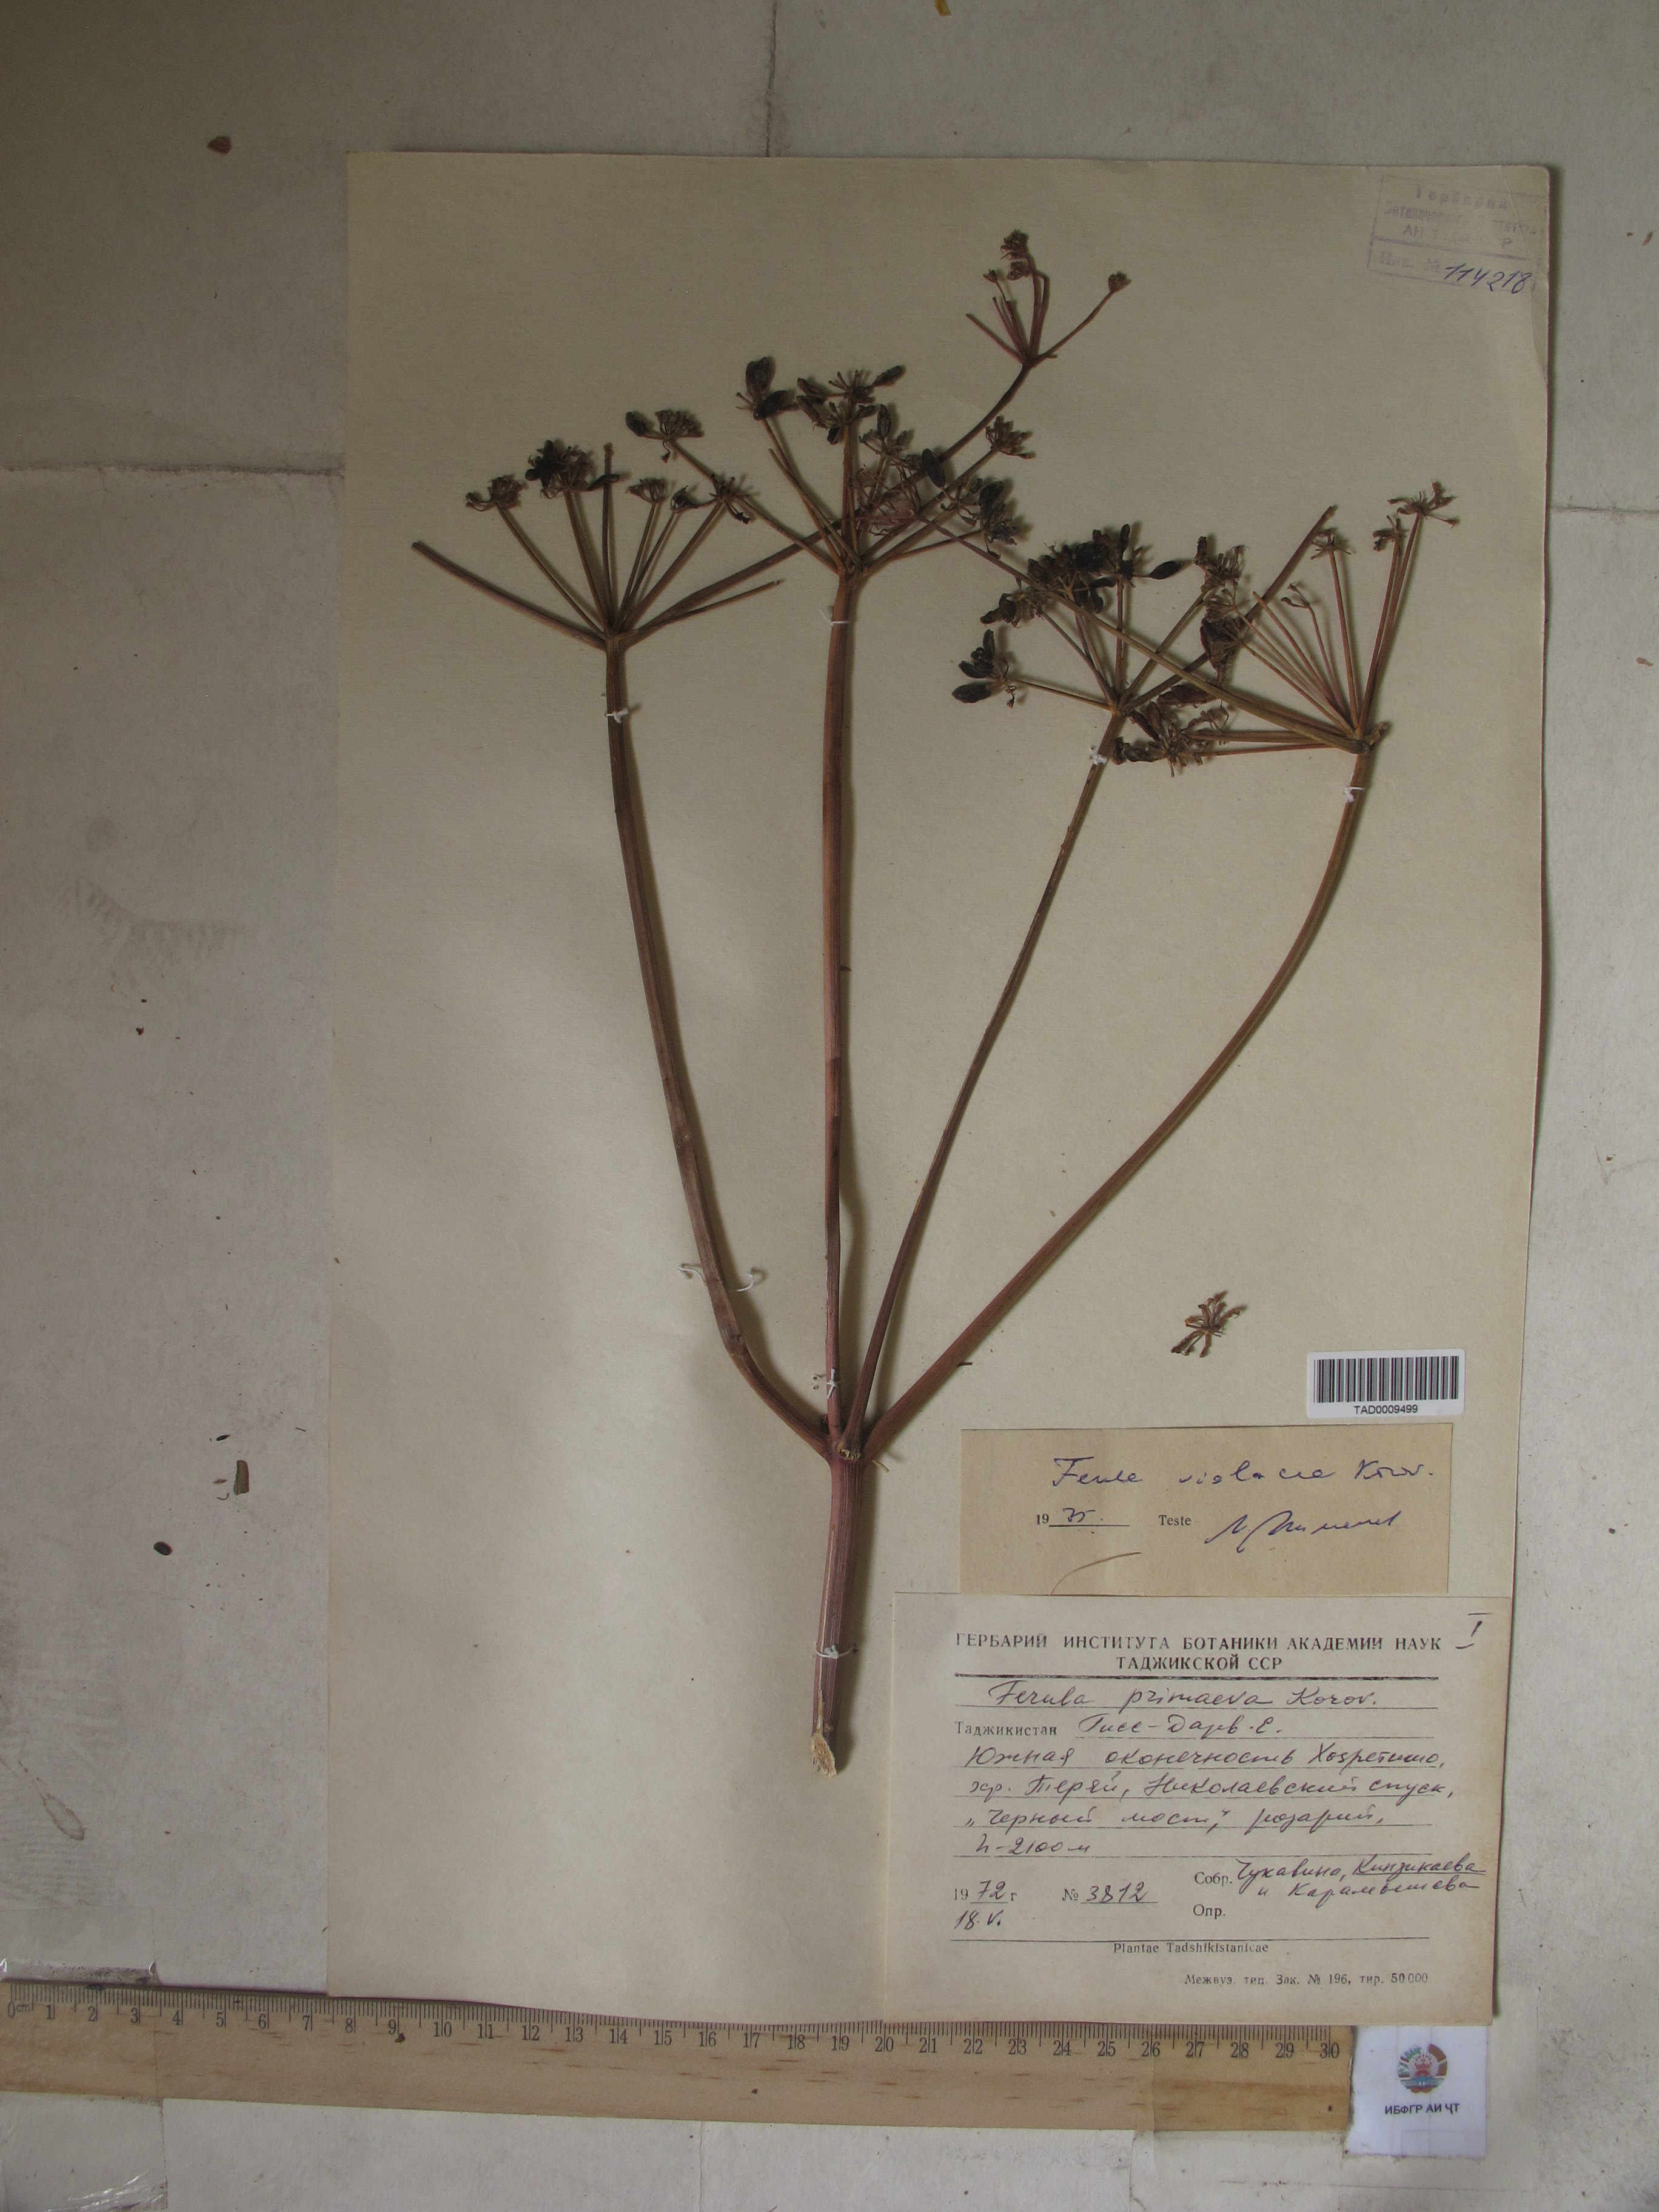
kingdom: Plantae
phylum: Tracheophyta
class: Magnoliopsida
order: Apiales
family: Apiaceae
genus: Ferula
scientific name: Ferula violacea
